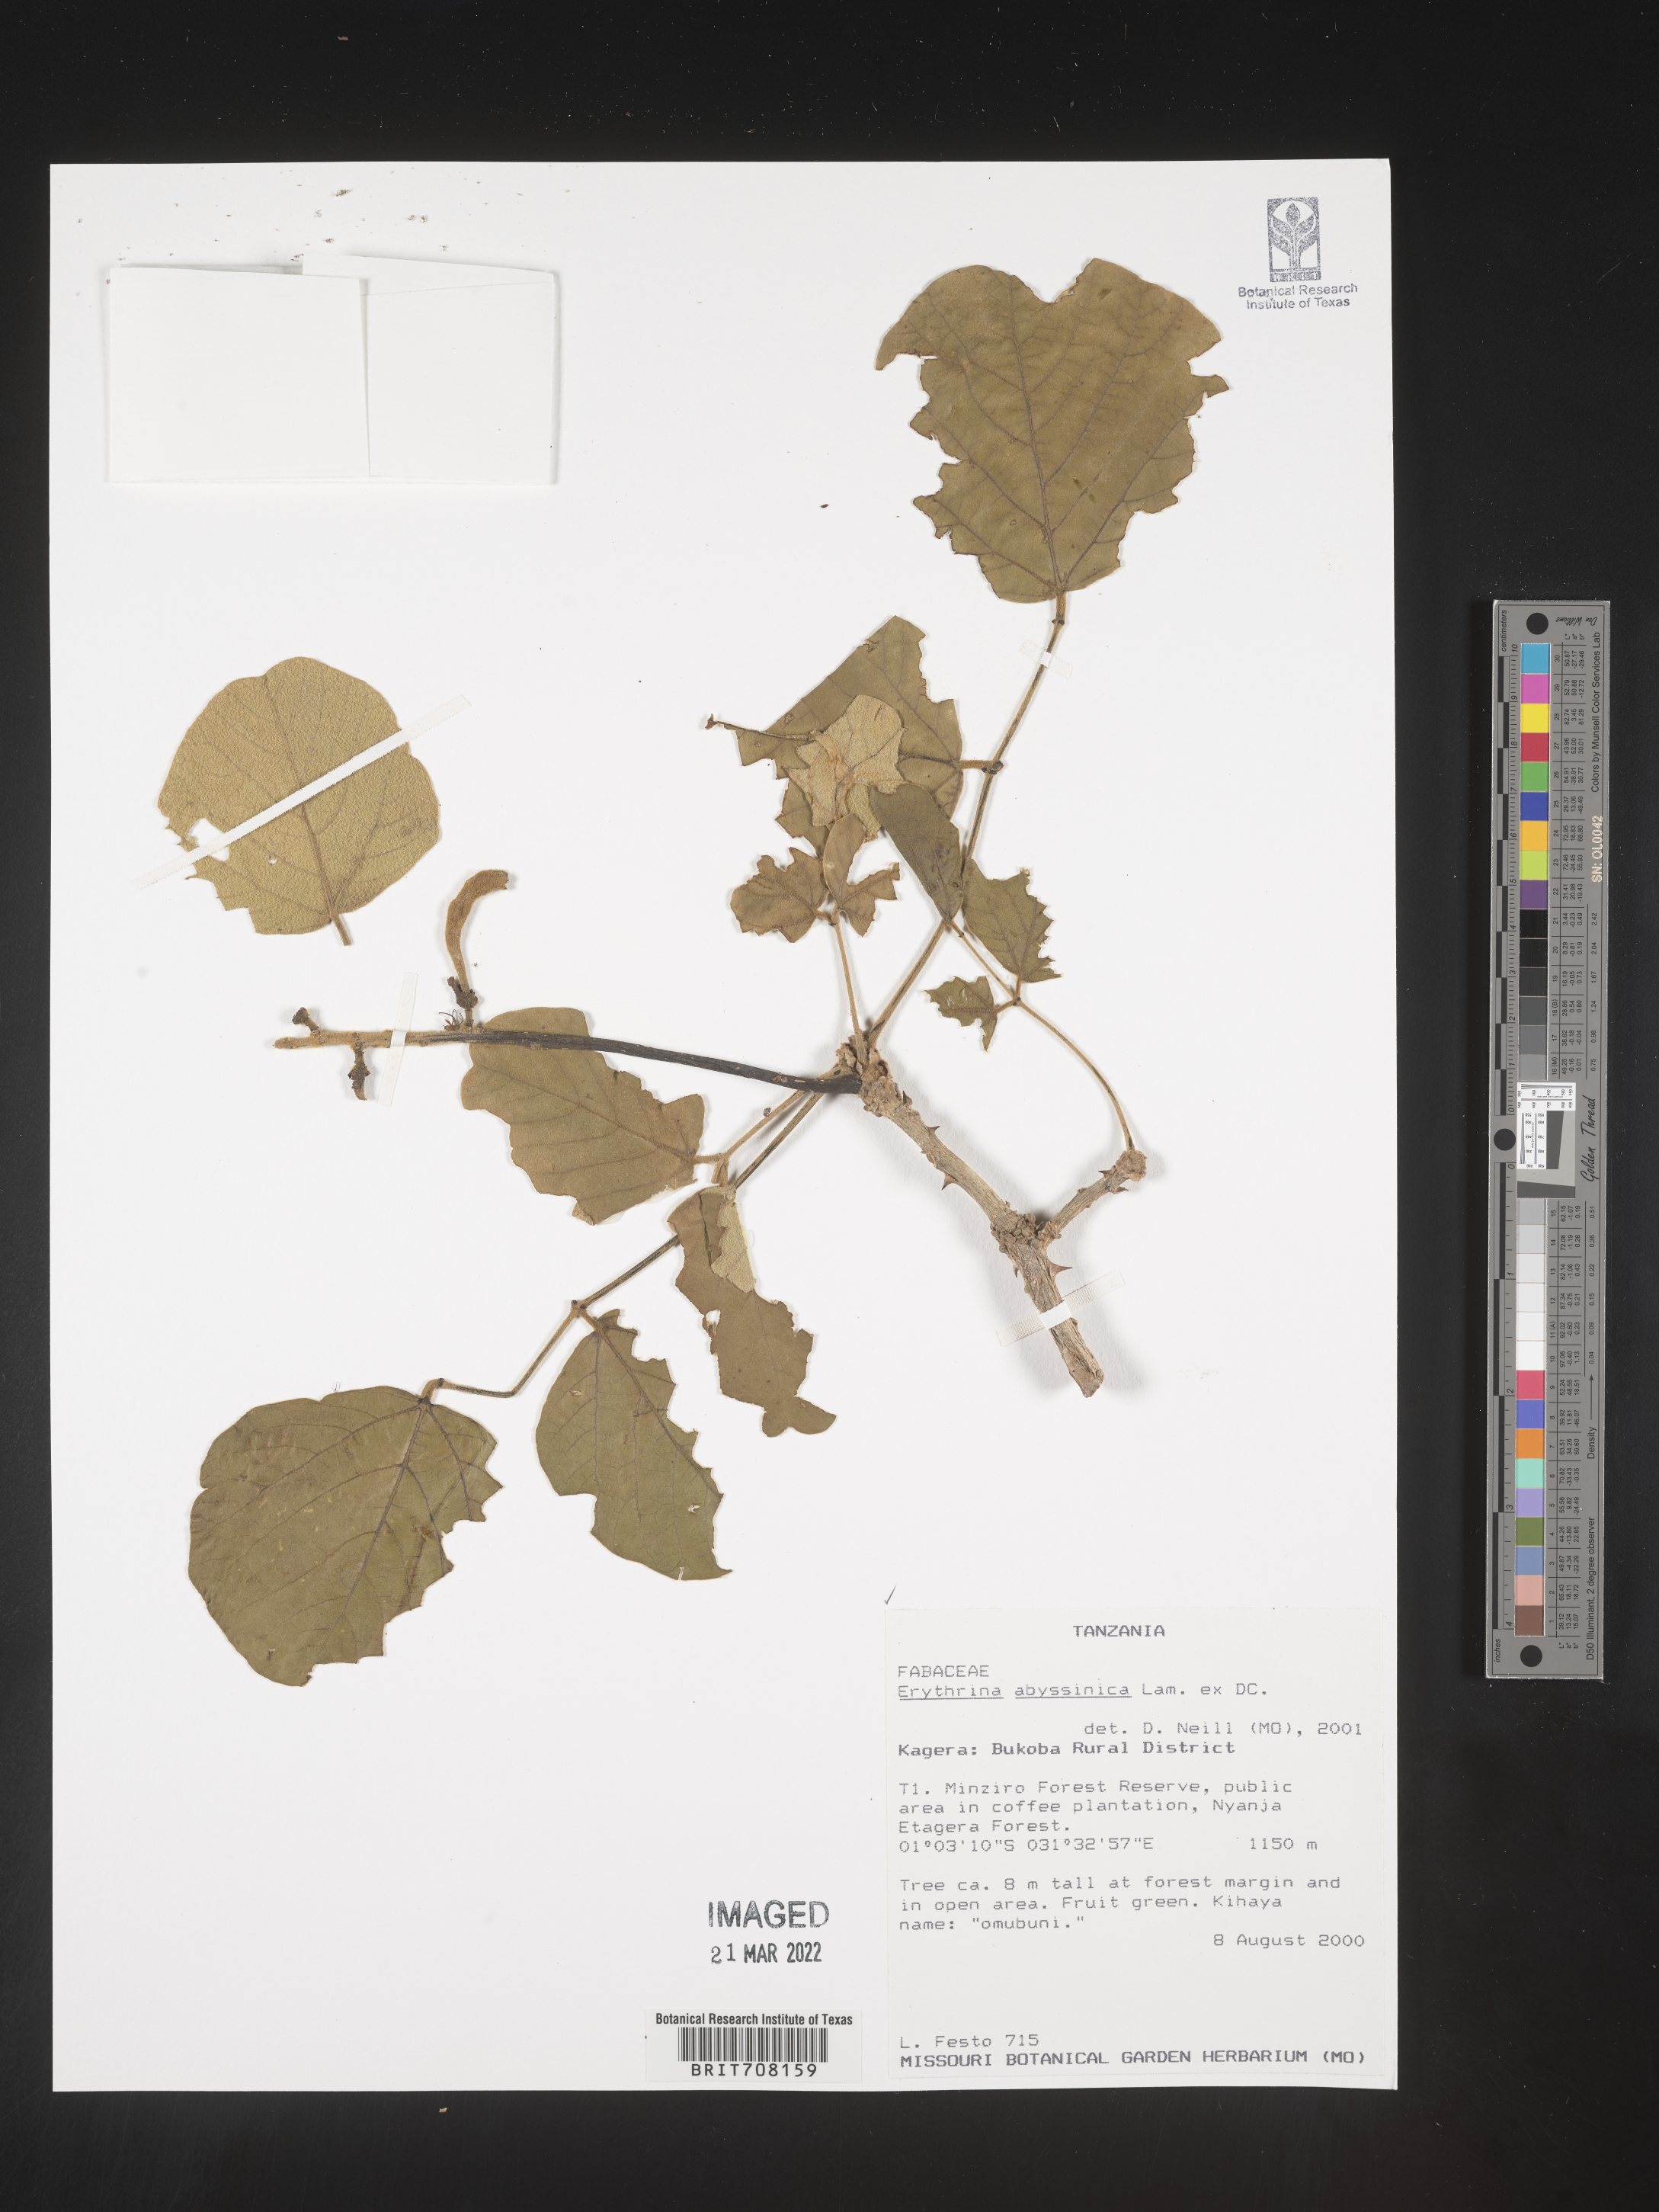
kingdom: Plantae
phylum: Tracheophyta
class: Magnoliopsida
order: Fabales
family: Fabaceae
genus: Erythrina
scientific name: Erythrina
